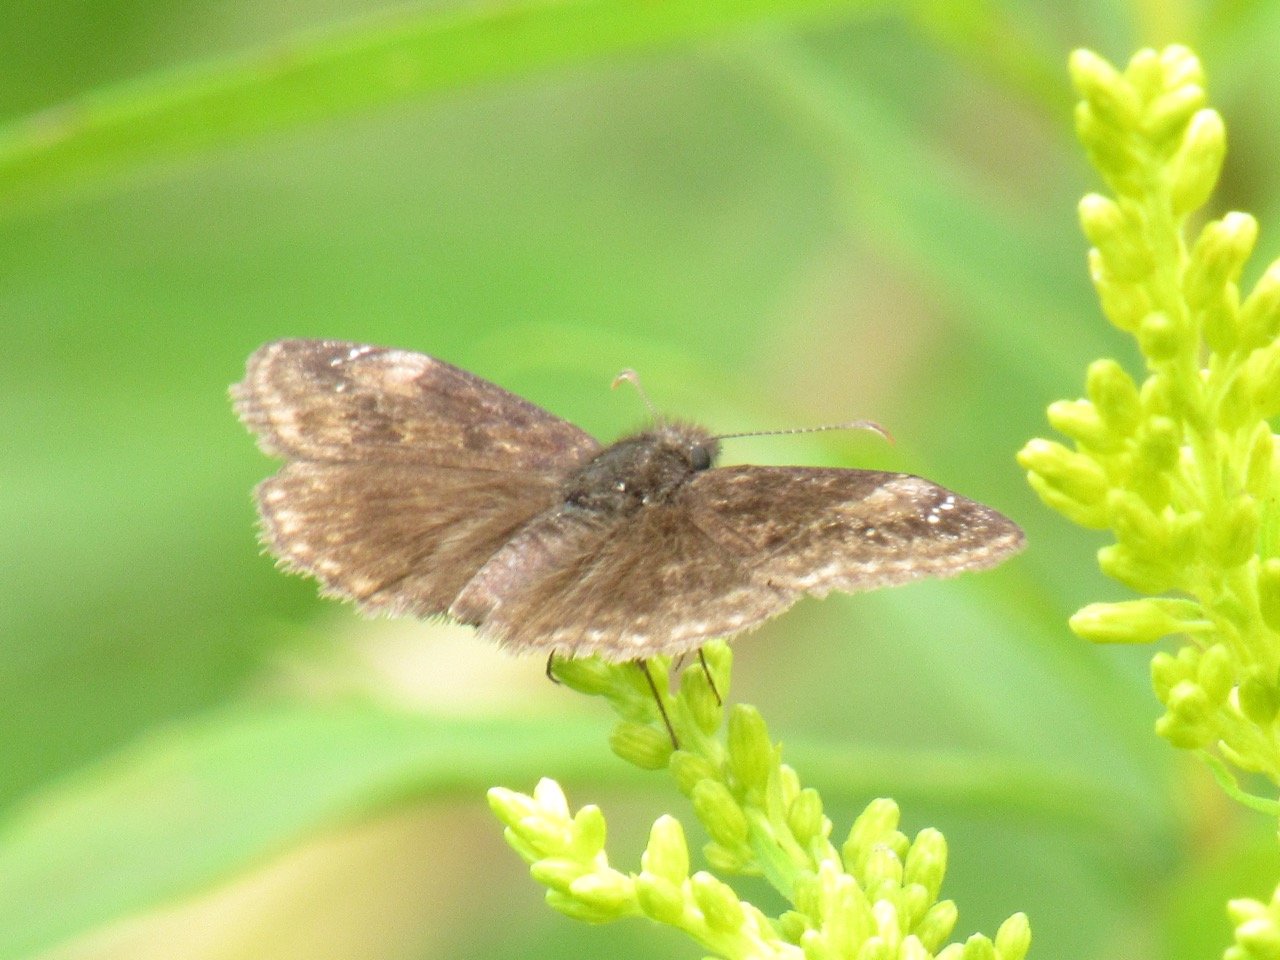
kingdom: Animalia
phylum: Arthropoda
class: Insecta
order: Lepidoptera
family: Hesperiidae
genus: Gesta
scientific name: Gesta
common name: Wild Indigo Duskywing
